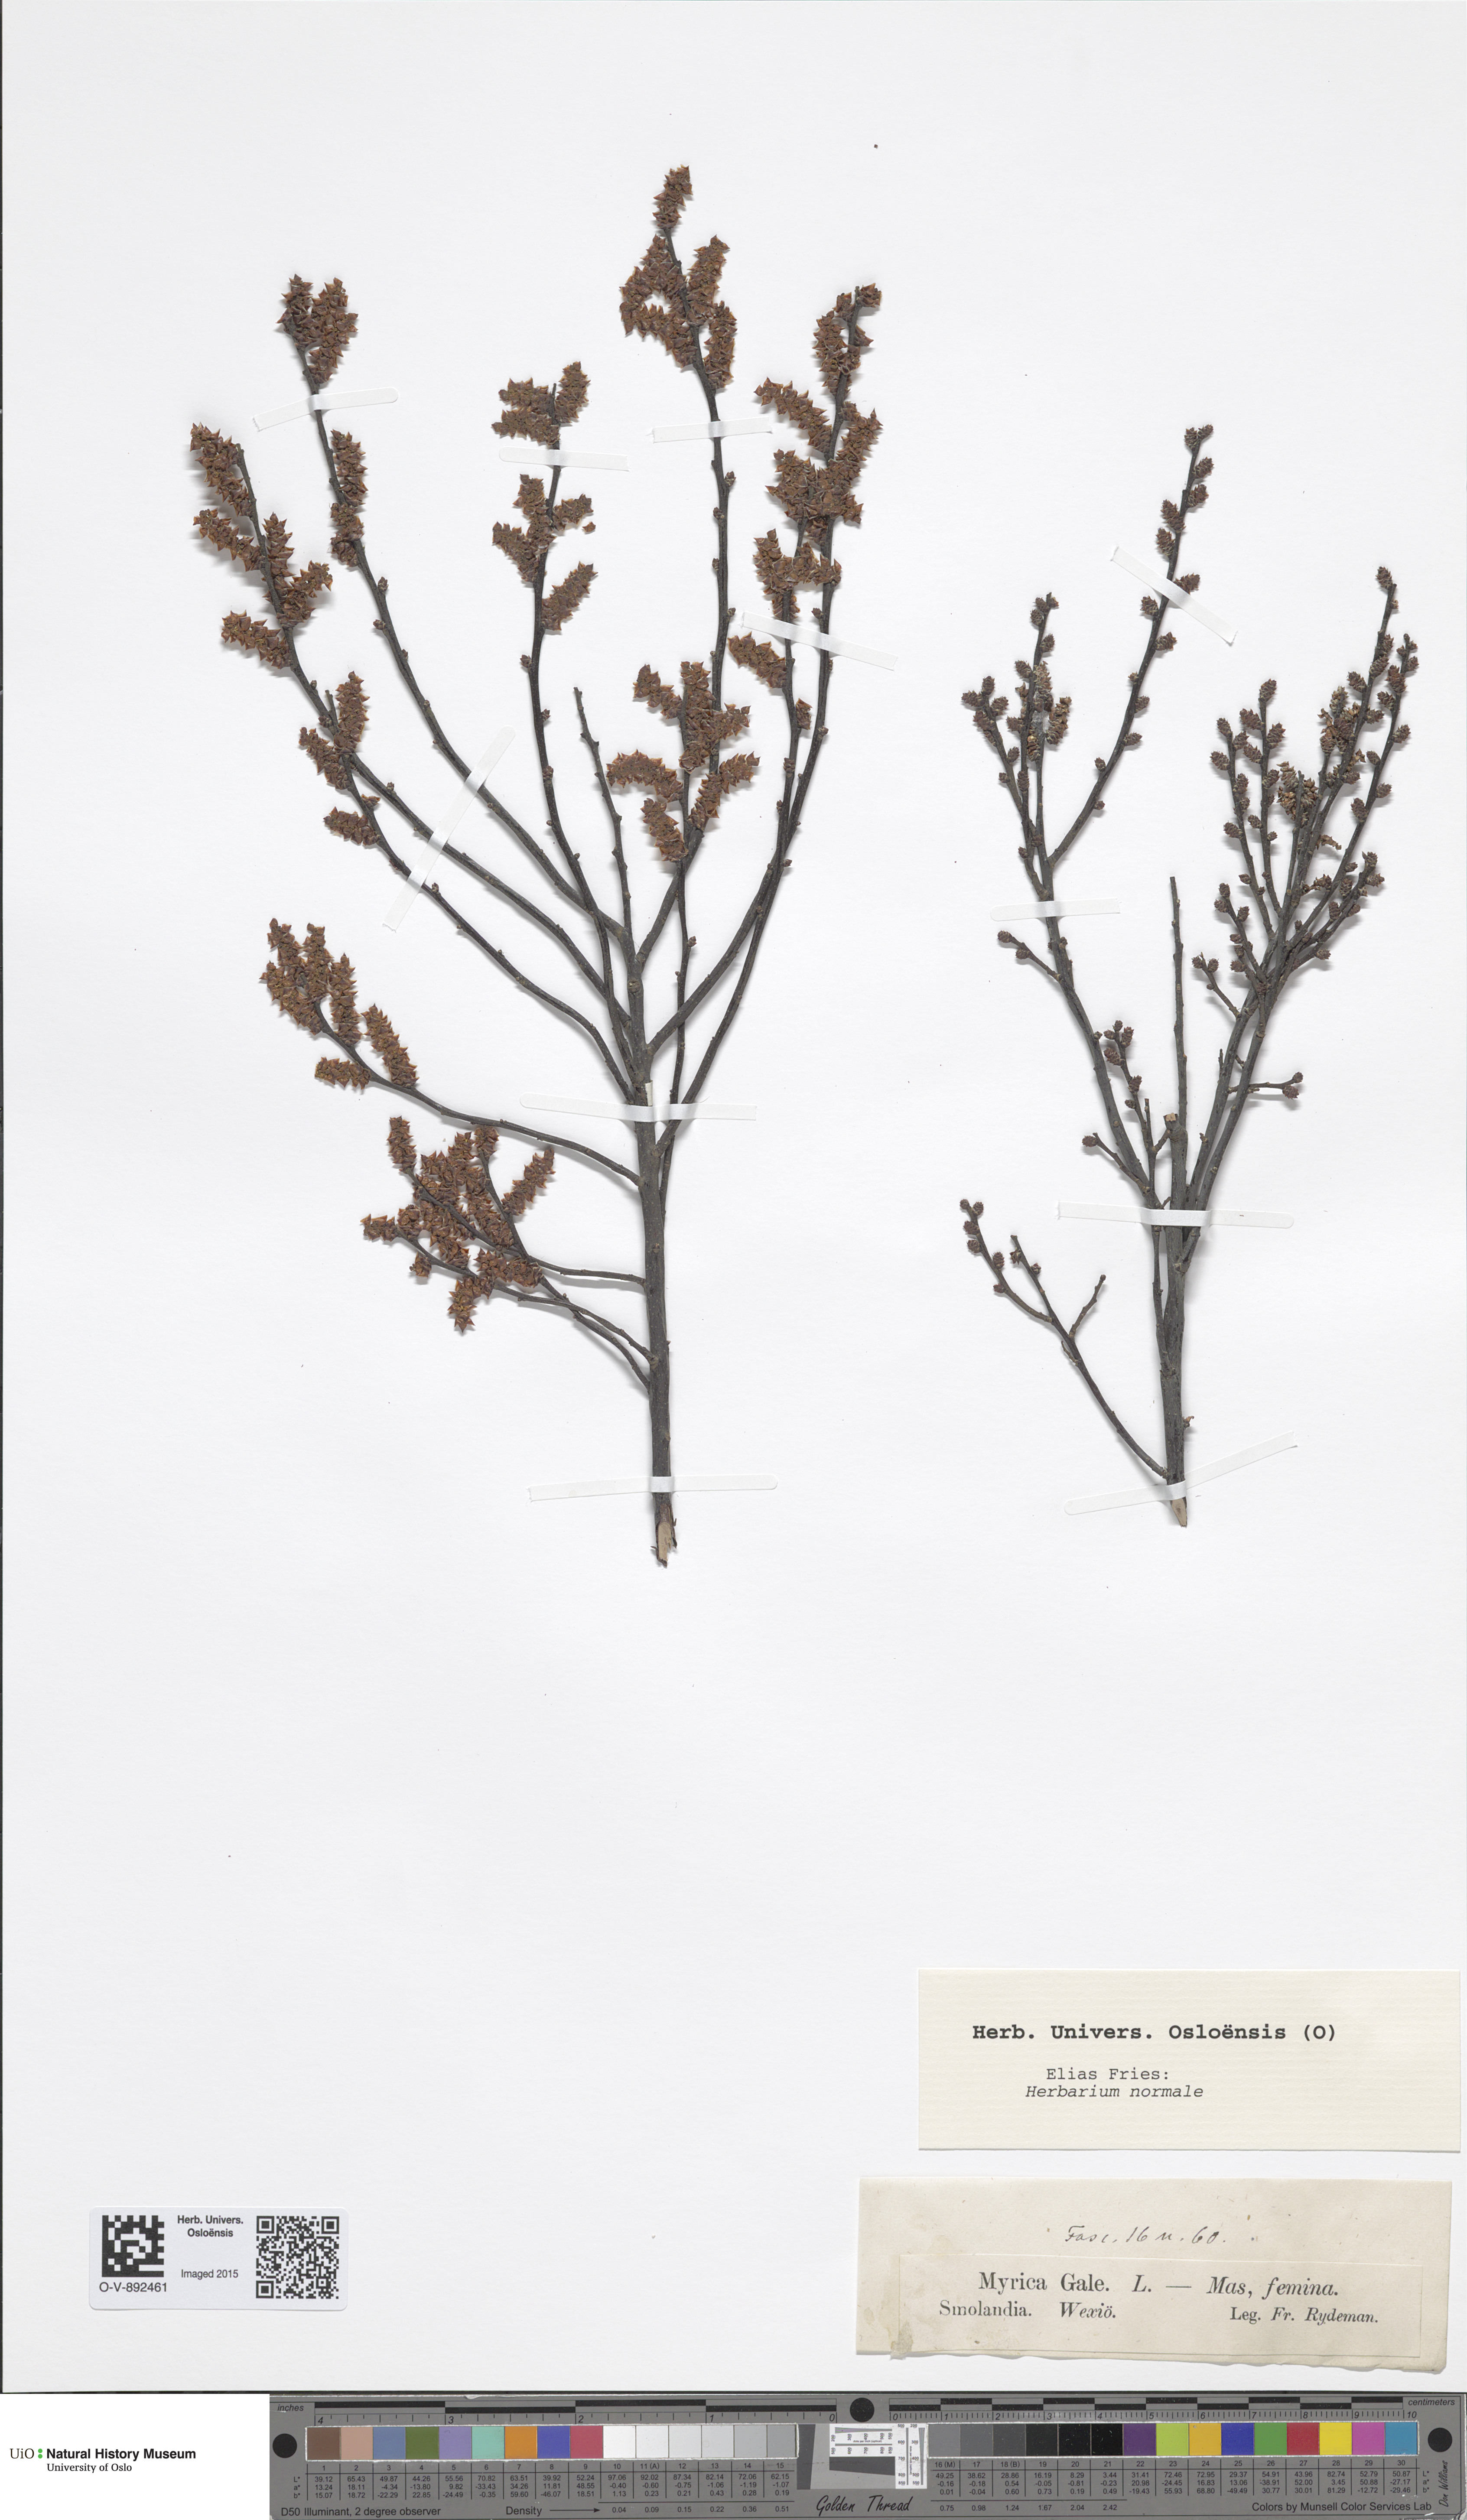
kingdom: Plantae
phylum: Tracheophyta
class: Magnoliopsida
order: Fagales
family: Myricaceae
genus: Myrica
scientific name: Myrica gale
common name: Sweet gale
